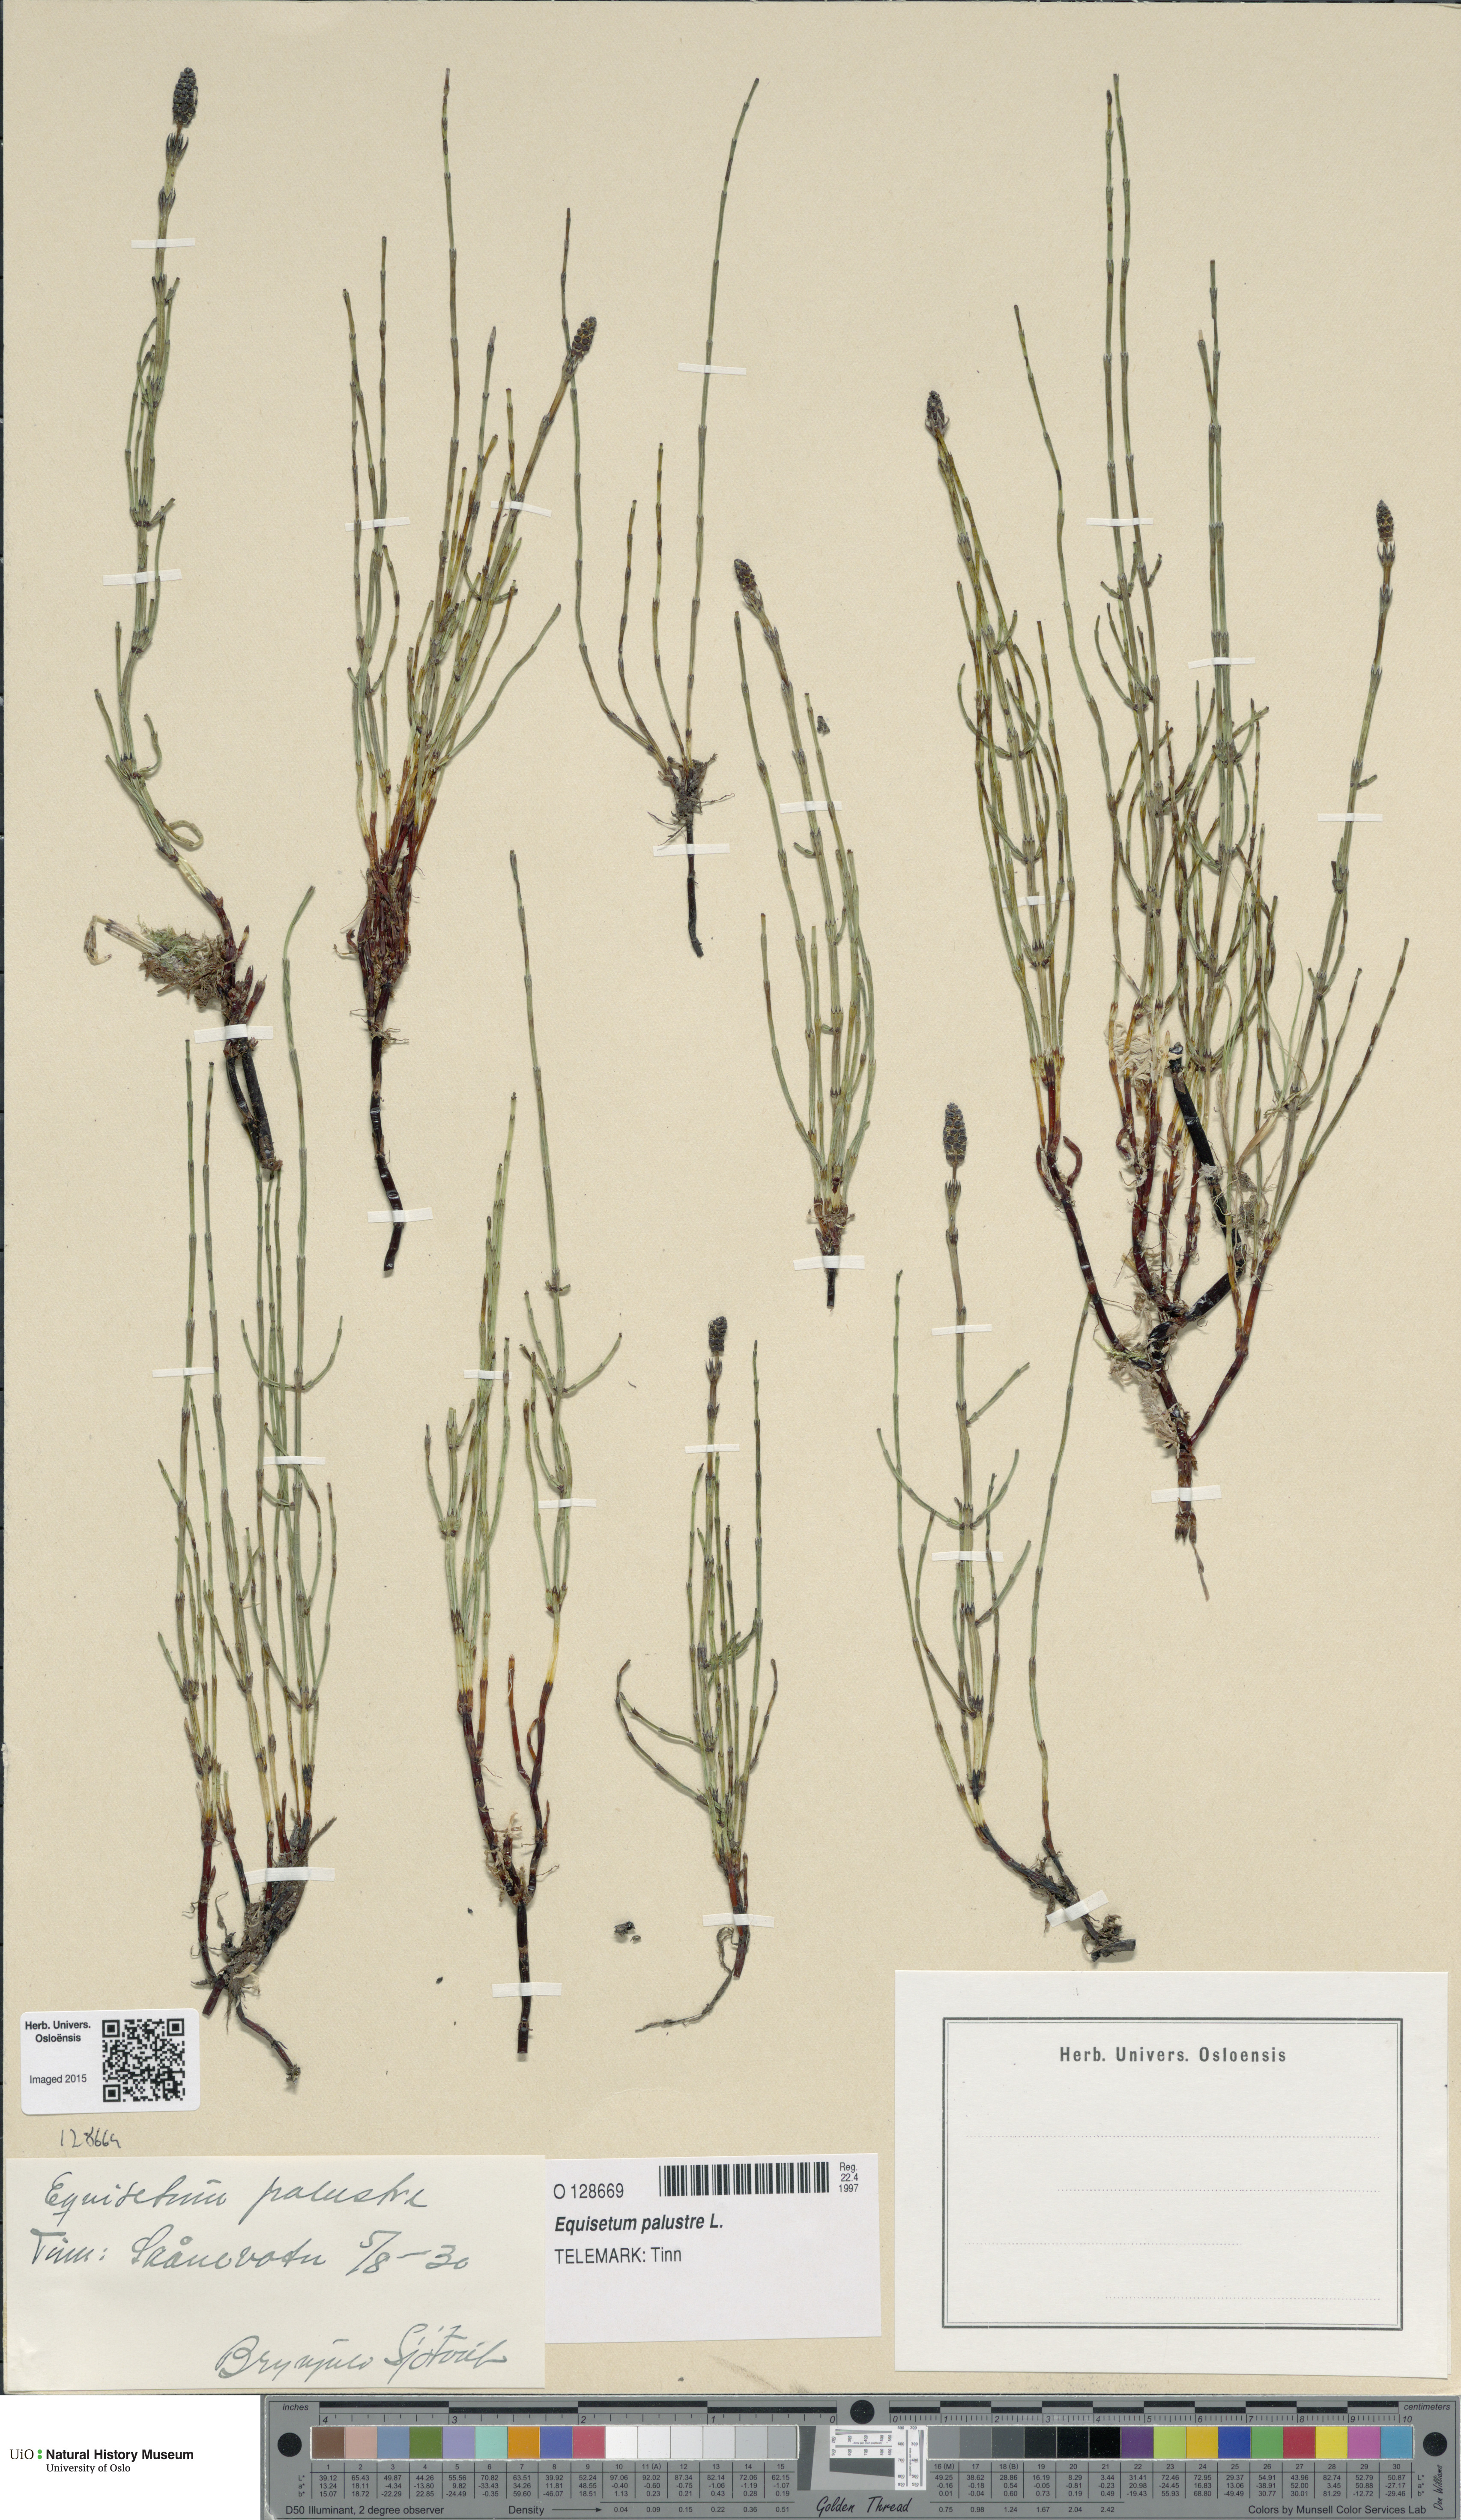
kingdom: Plantae
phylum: Tracheophyta
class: Polypodiopsida
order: Equisetales
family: Equisetaceae
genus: Equisetum
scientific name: Equisetum palustre
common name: Marsh horsetail
